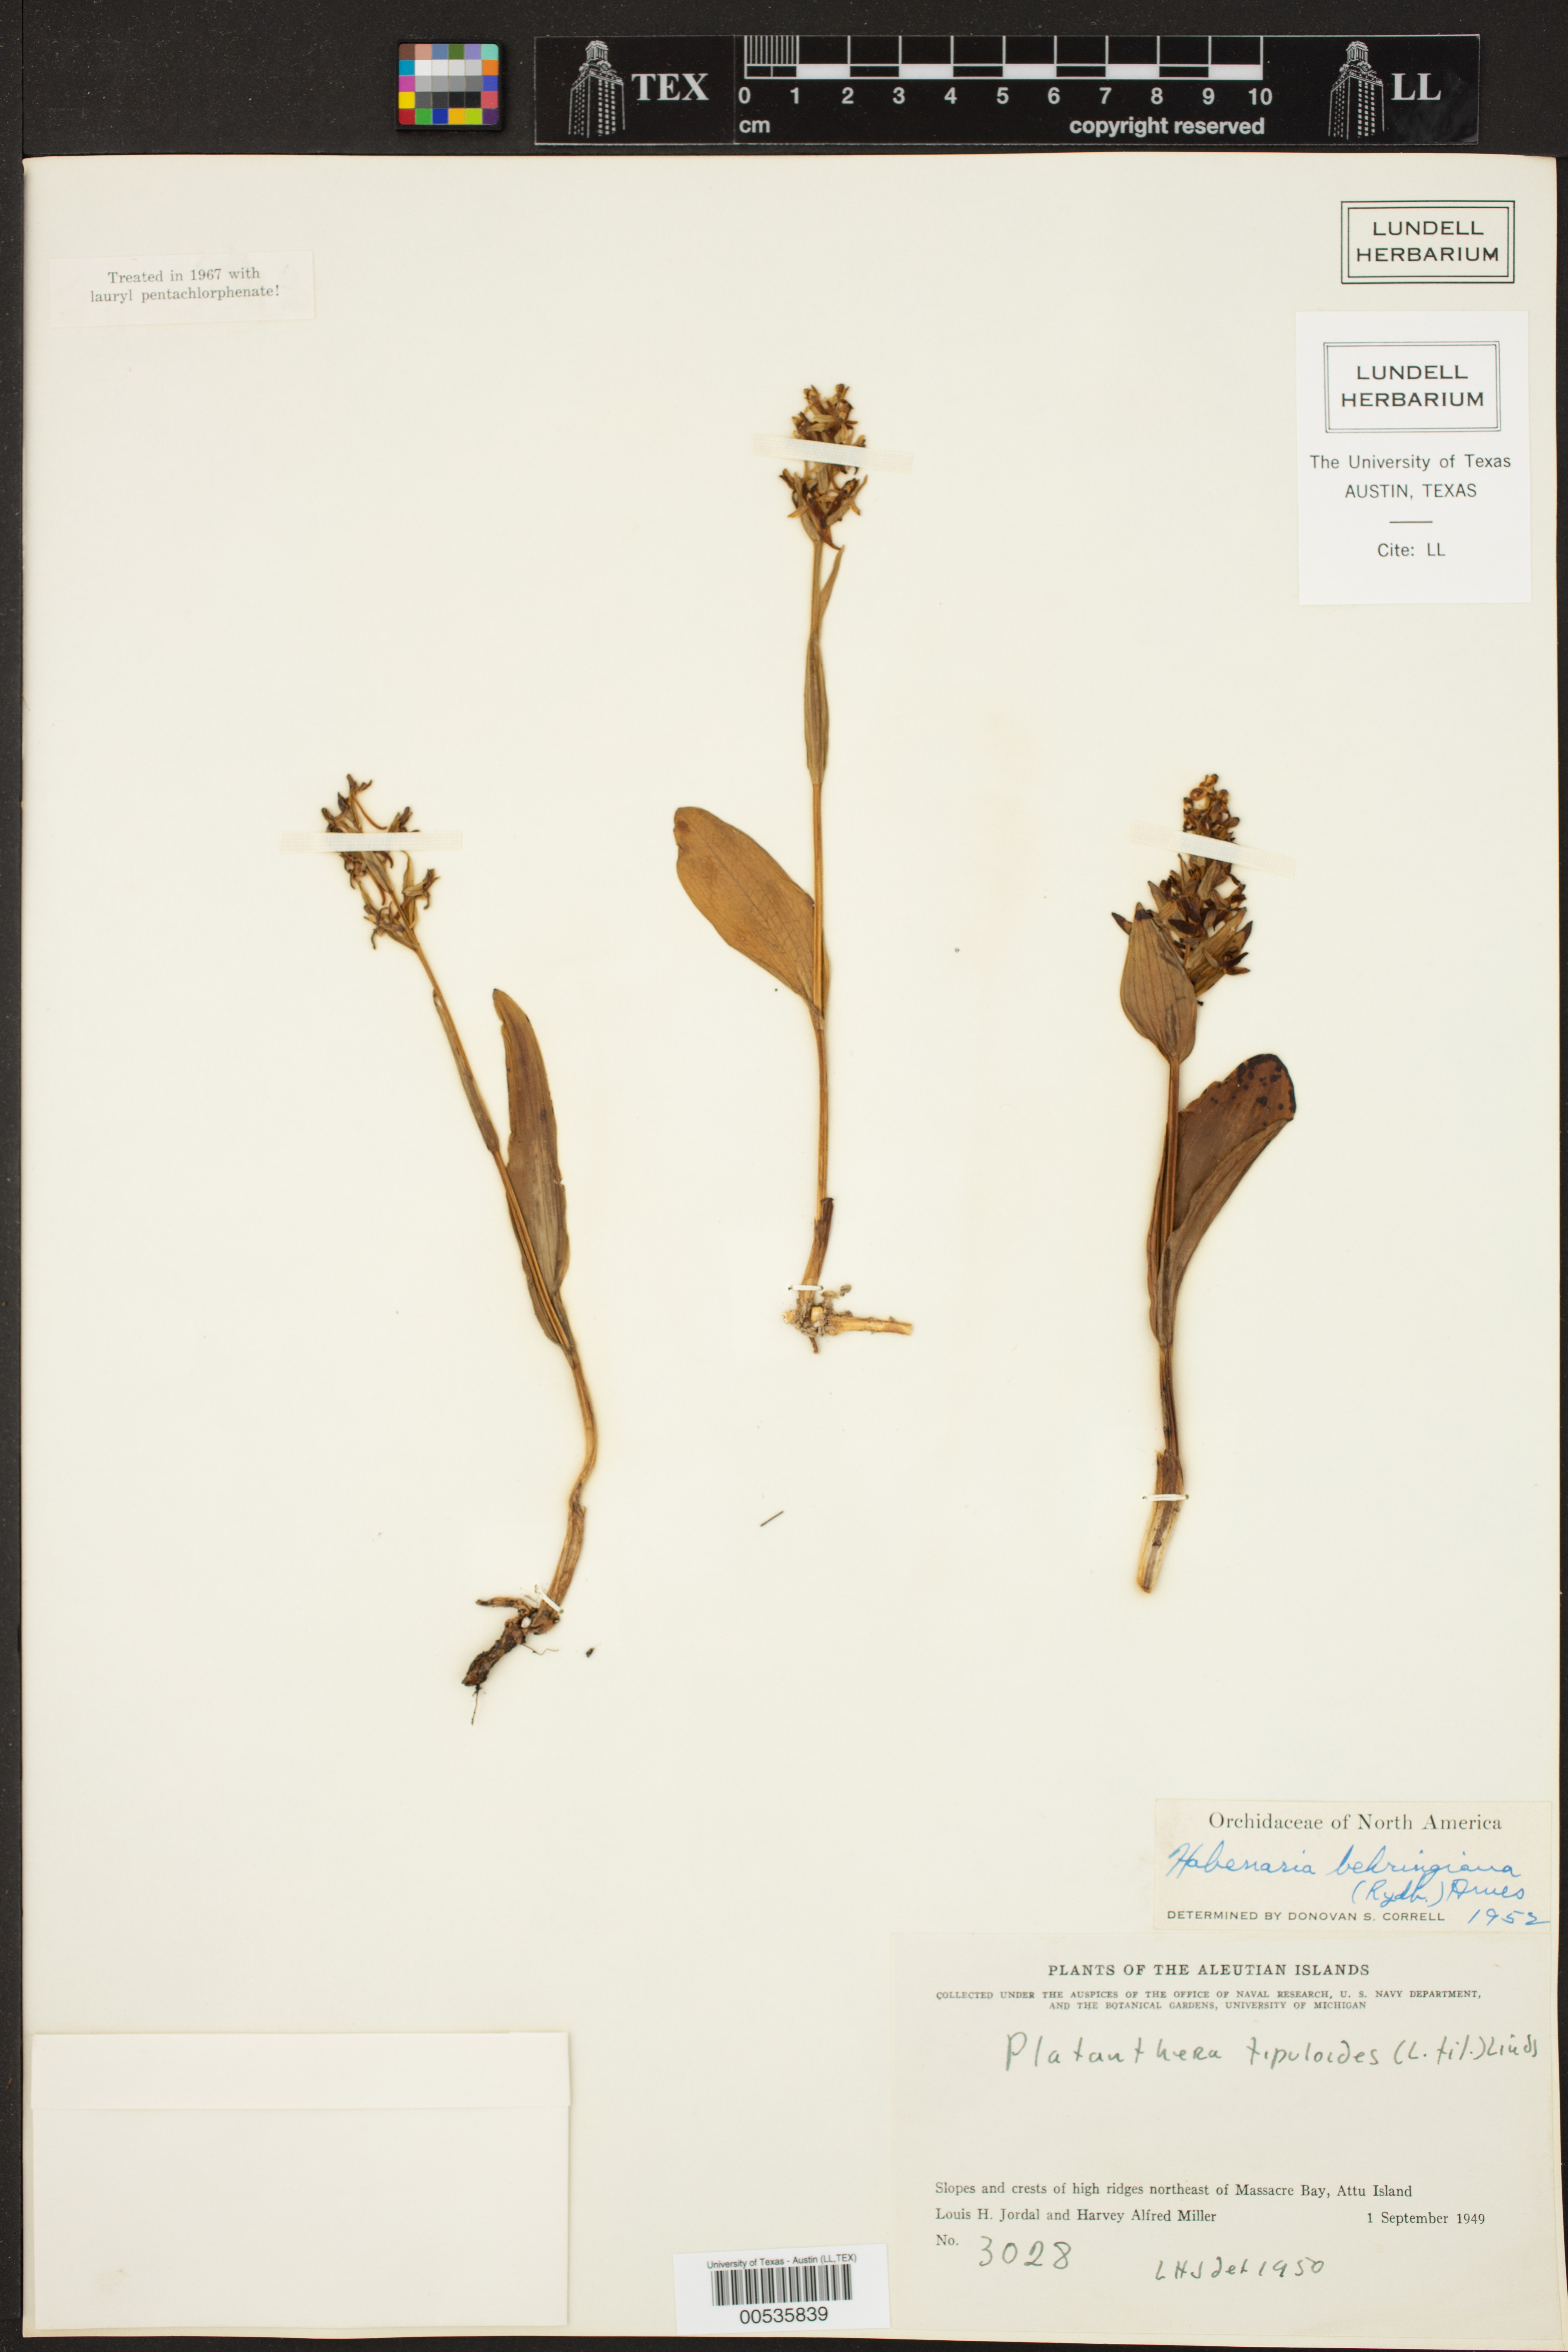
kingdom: Plantae
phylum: Tracheophyta
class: Liliopsida
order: Asparagales
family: Orchidaceae
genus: Platanthera
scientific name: Platanthera tipuloides
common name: Aleutian bog orchid
